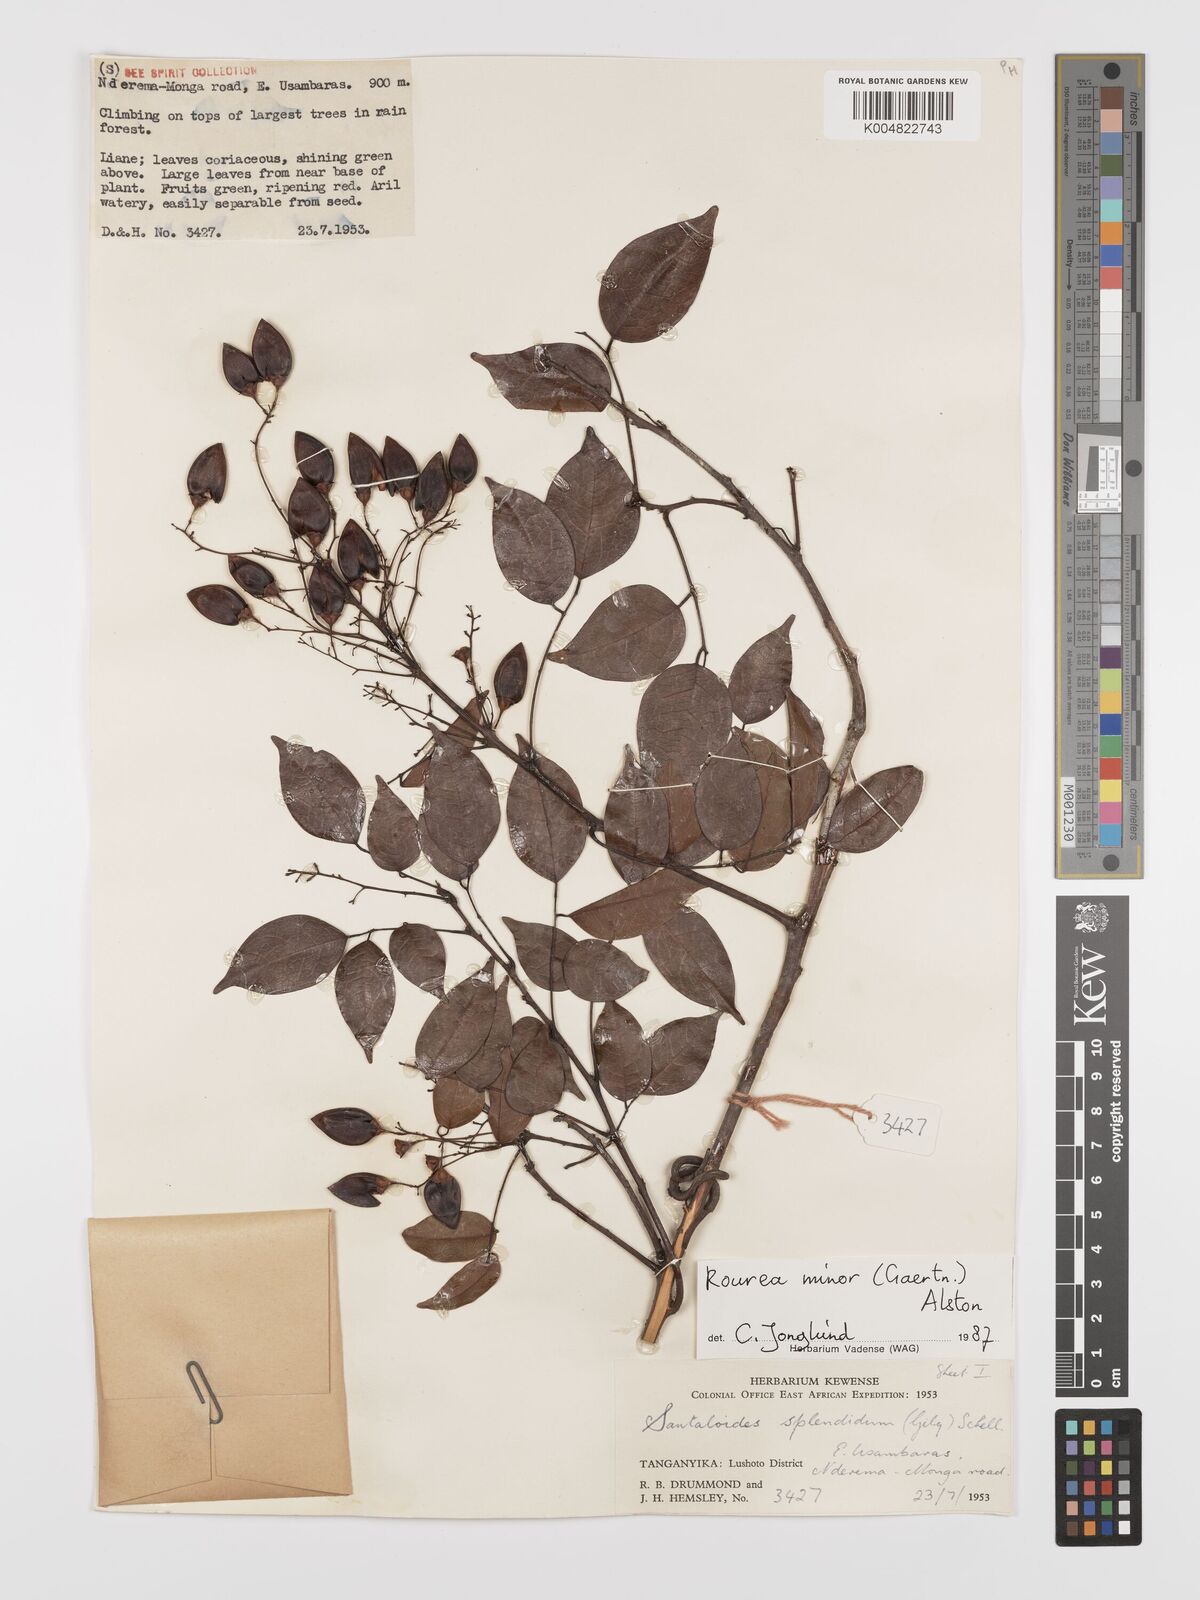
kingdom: Plantae
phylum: Tracheophyta
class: Magnoliopsida
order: Oxalidales
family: Connaraceae
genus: Rourea
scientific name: Rourea minor
